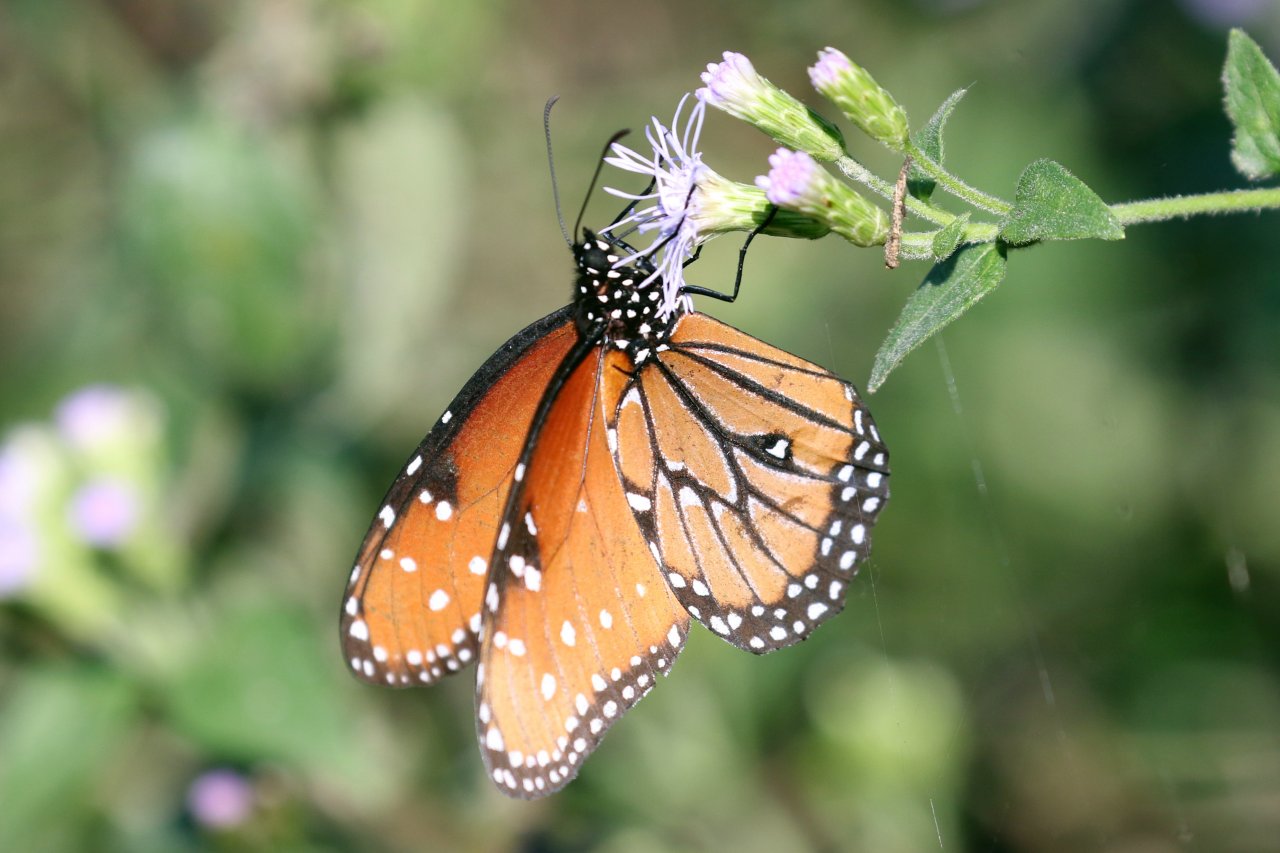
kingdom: Animalia
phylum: Arthropoda
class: Insecta
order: Lepidoptera
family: Nymphalidae
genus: Danaus
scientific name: Danaus gilippus
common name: Queen
